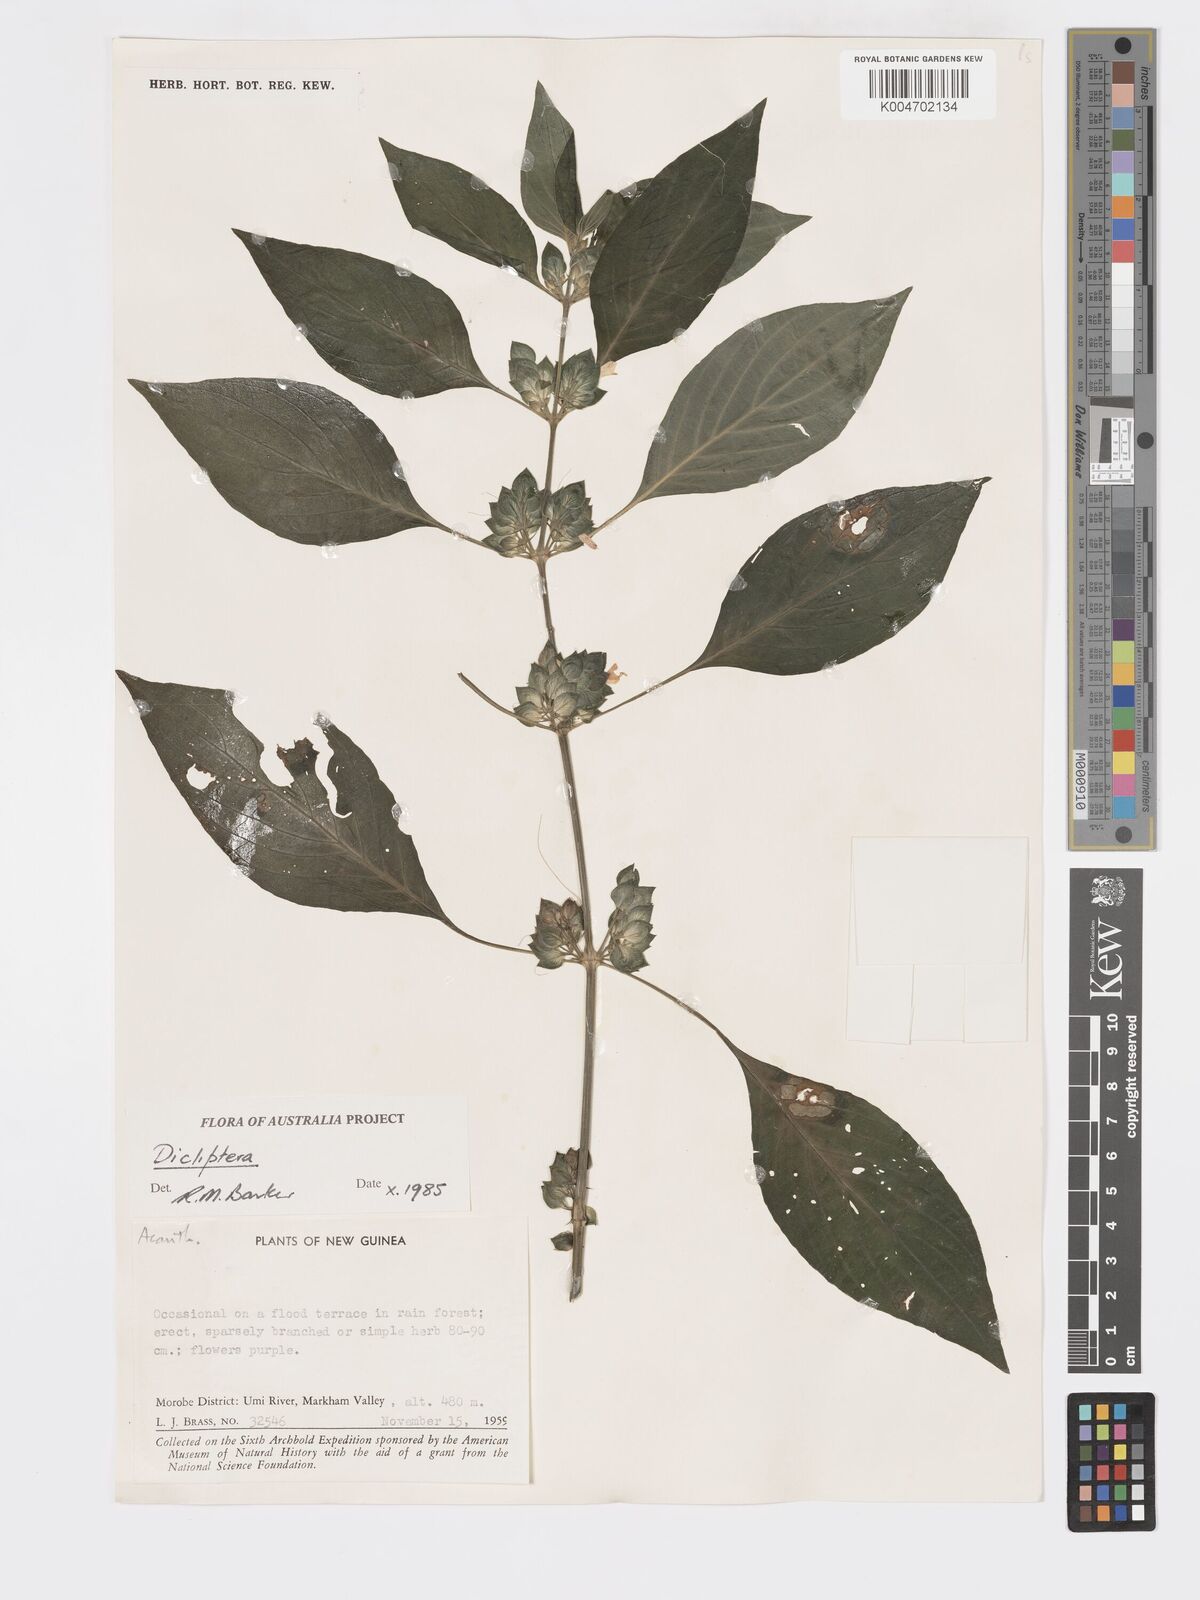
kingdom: Plantae
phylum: Tracheophyta
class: Magnoliopsida
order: Lamiales
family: Acanthaceae
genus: Dicliptera
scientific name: Dicliptera papuana
